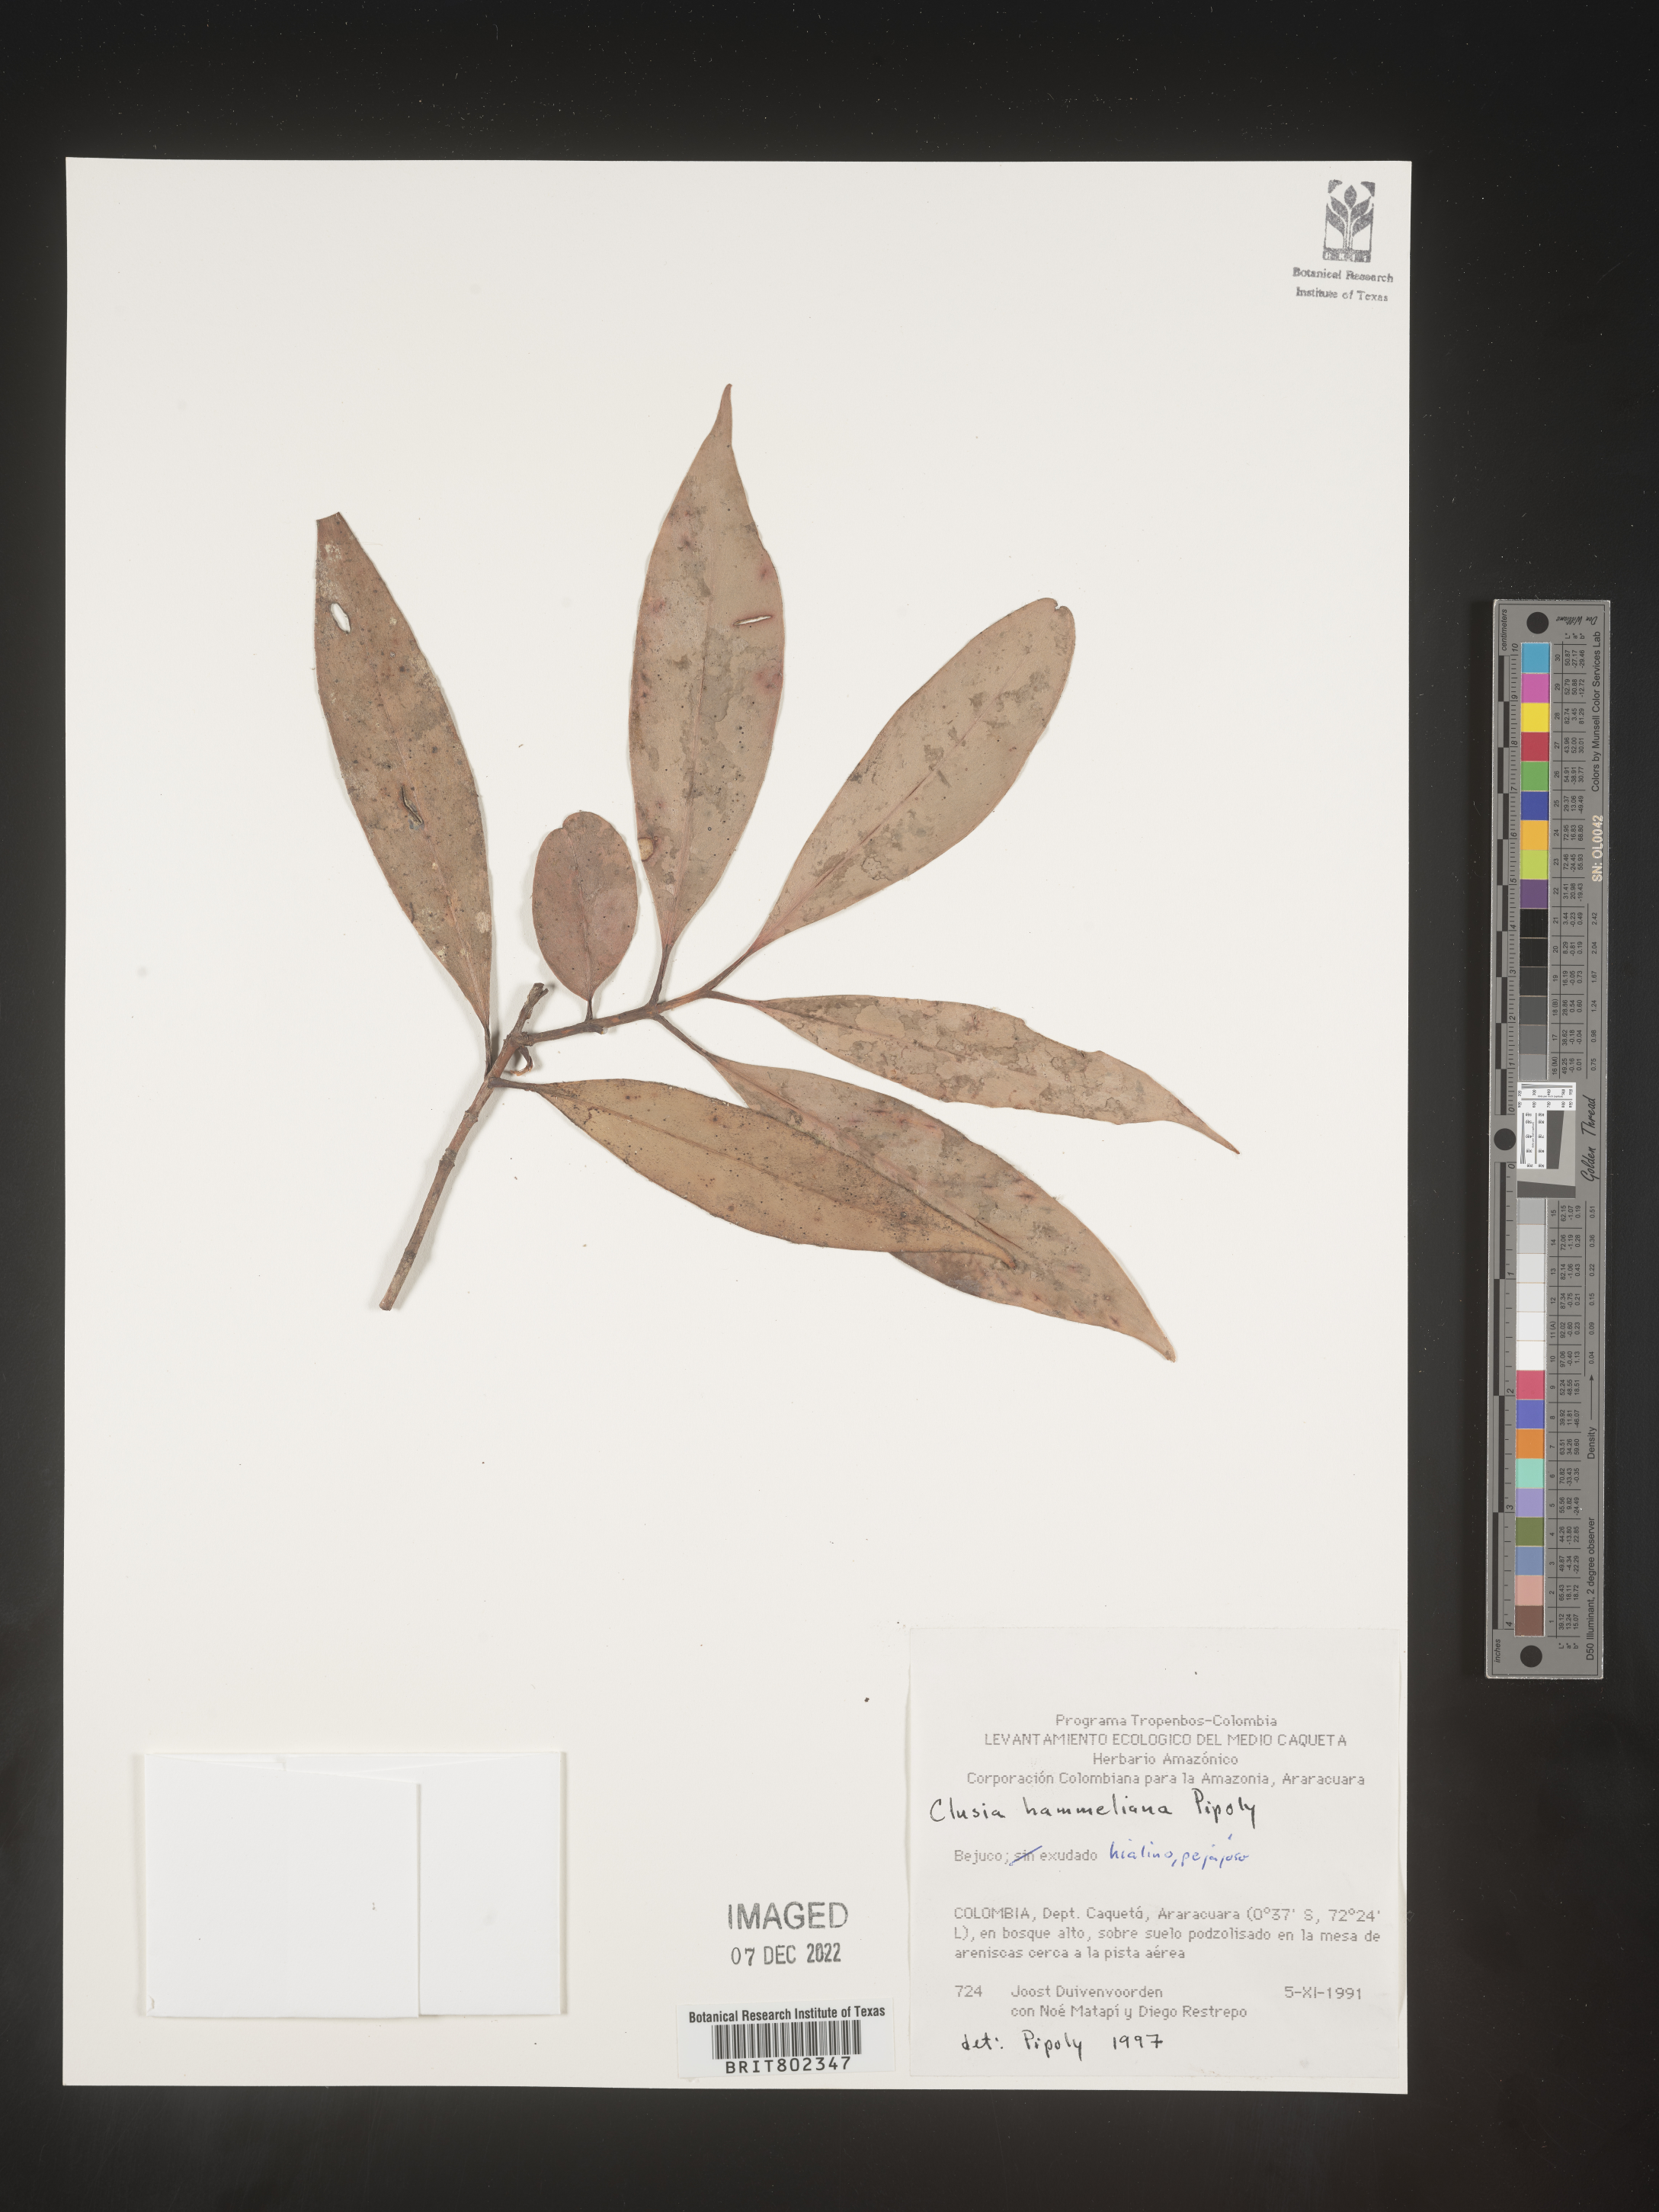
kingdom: Plantae
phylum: Tracheophyta
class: Magnoliopsida
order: Malpighiales
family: Clusiaceae
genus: Clusia
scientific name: Clusia hammeliana
